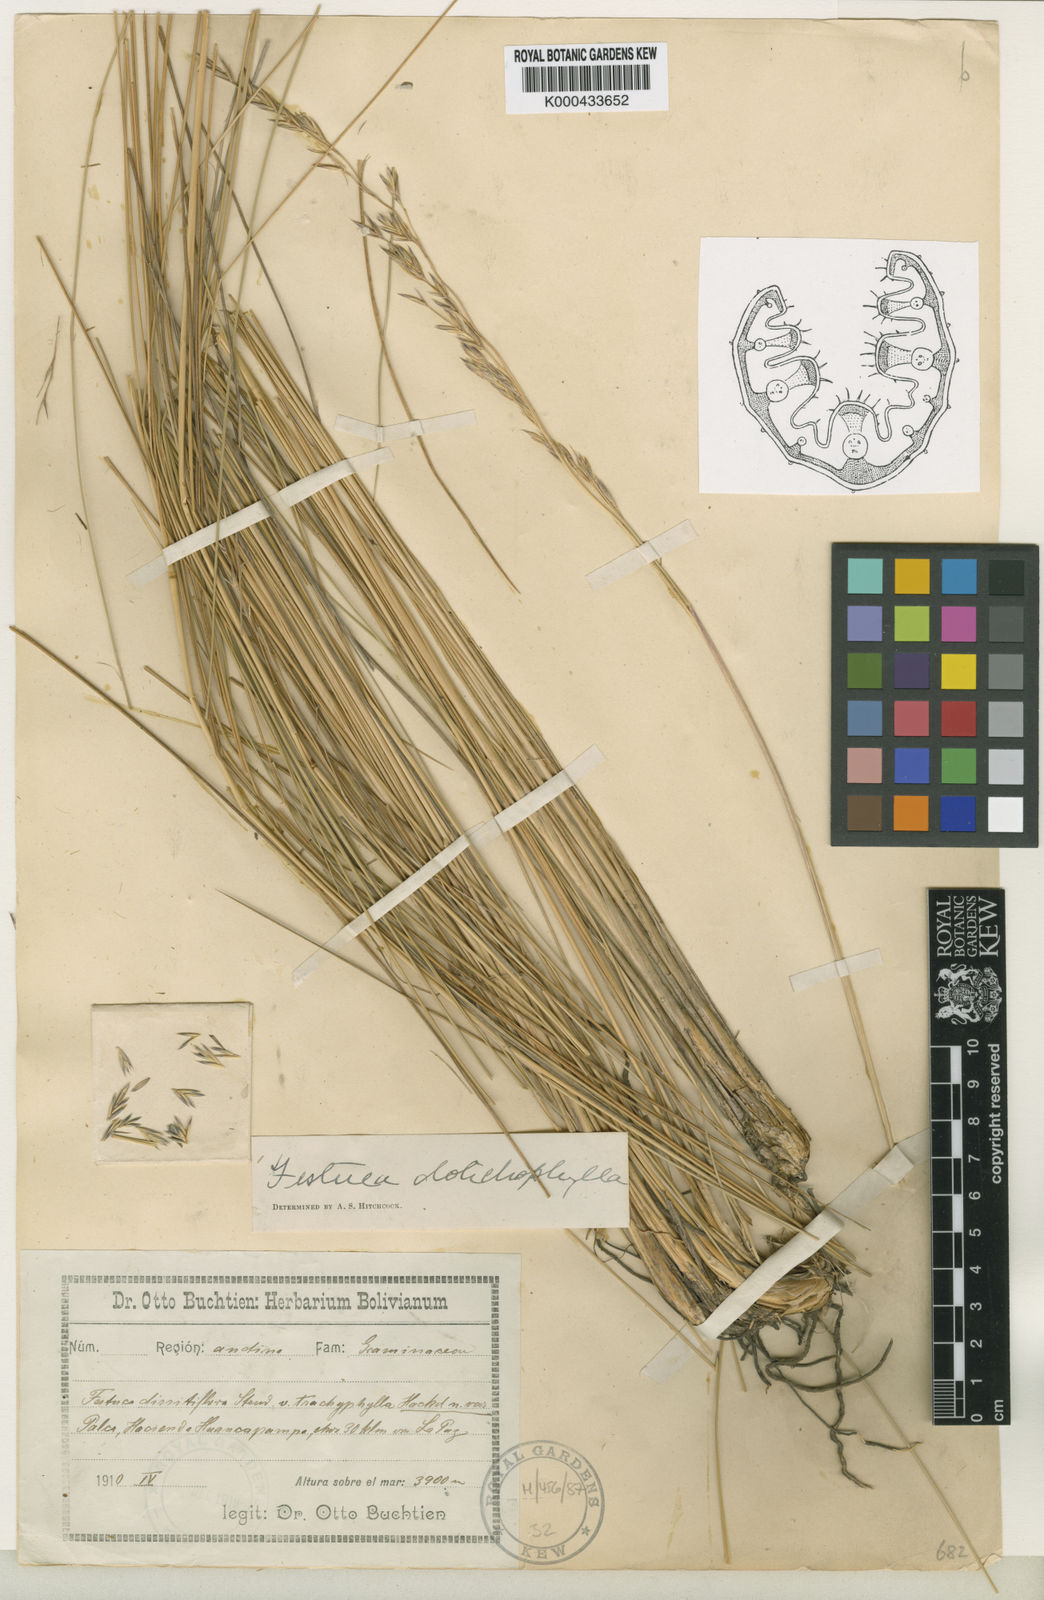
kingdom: Plantae
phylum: Tracheophyta
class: Liliopsida
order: Poales
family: Poaceae
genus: Festuca
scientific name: Festuca scabrifolia
